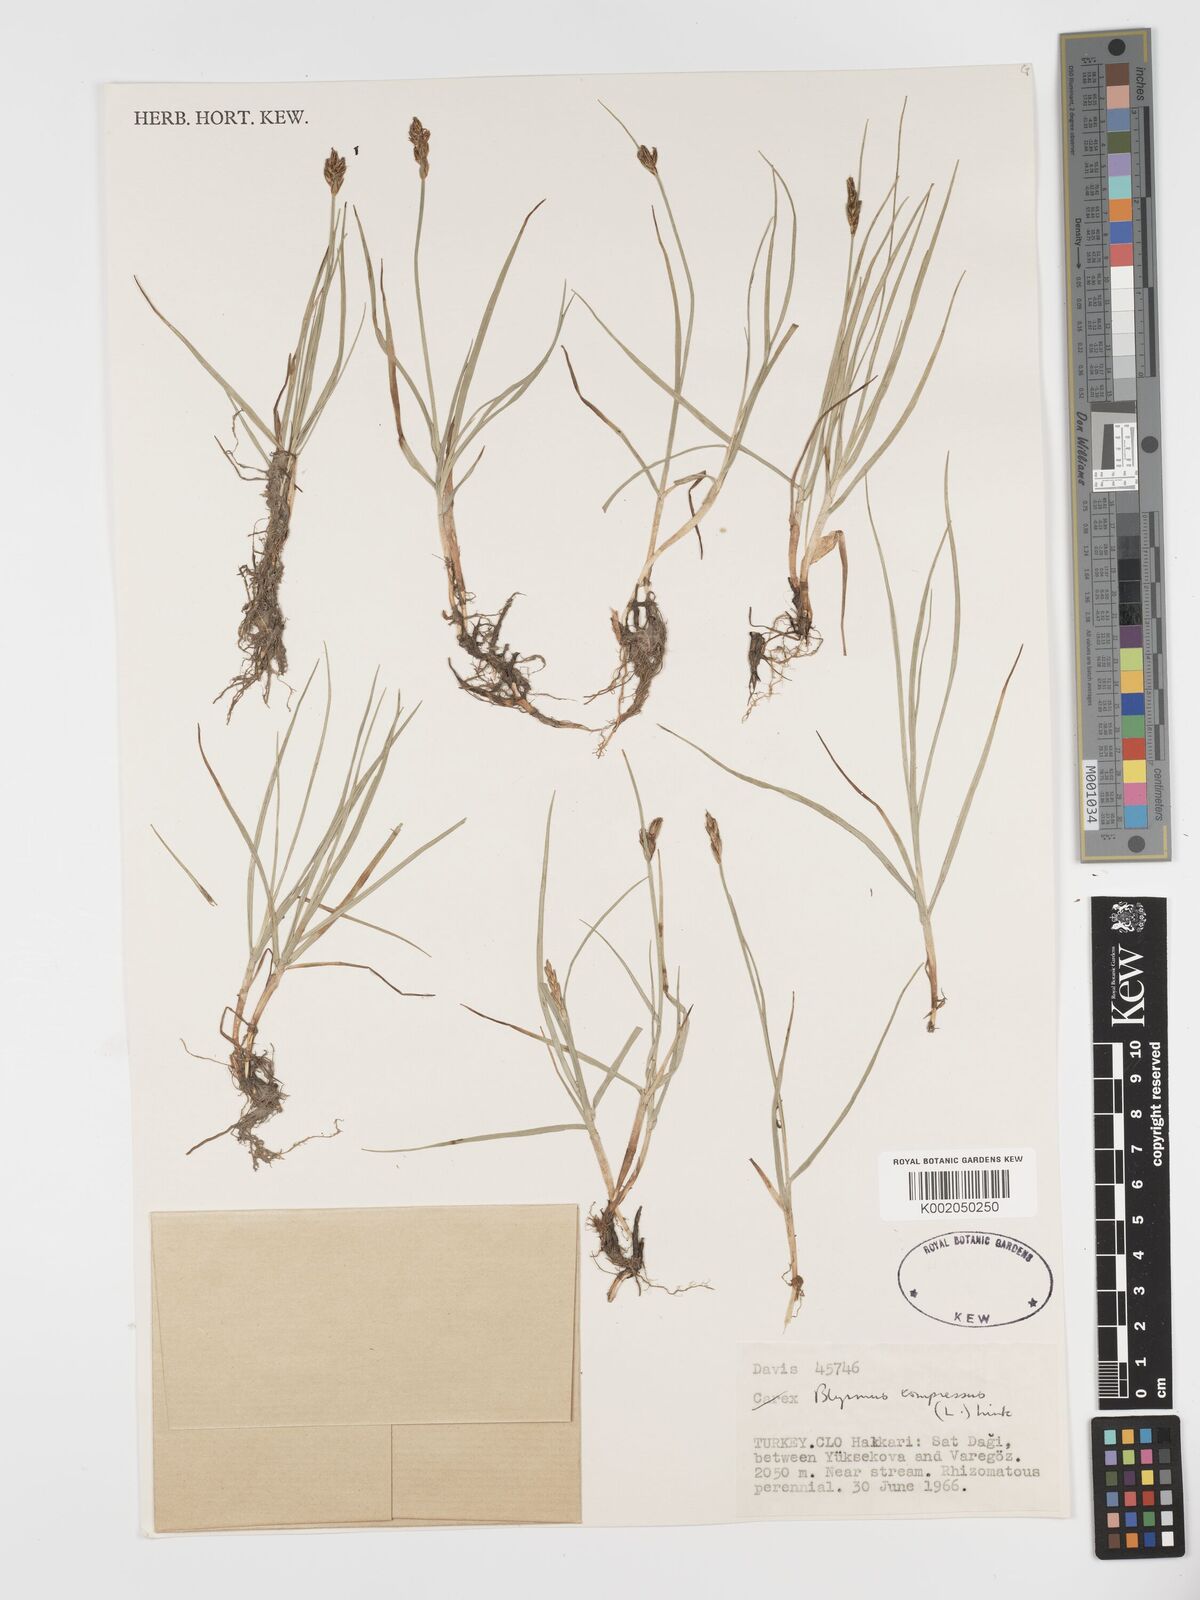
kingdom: Plantae
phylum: Tracheophyta
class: Liliopsida
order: Poales
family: Cyperaceae
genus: Blysmus
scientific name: Blysmus compressus
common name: Flat-sedge
